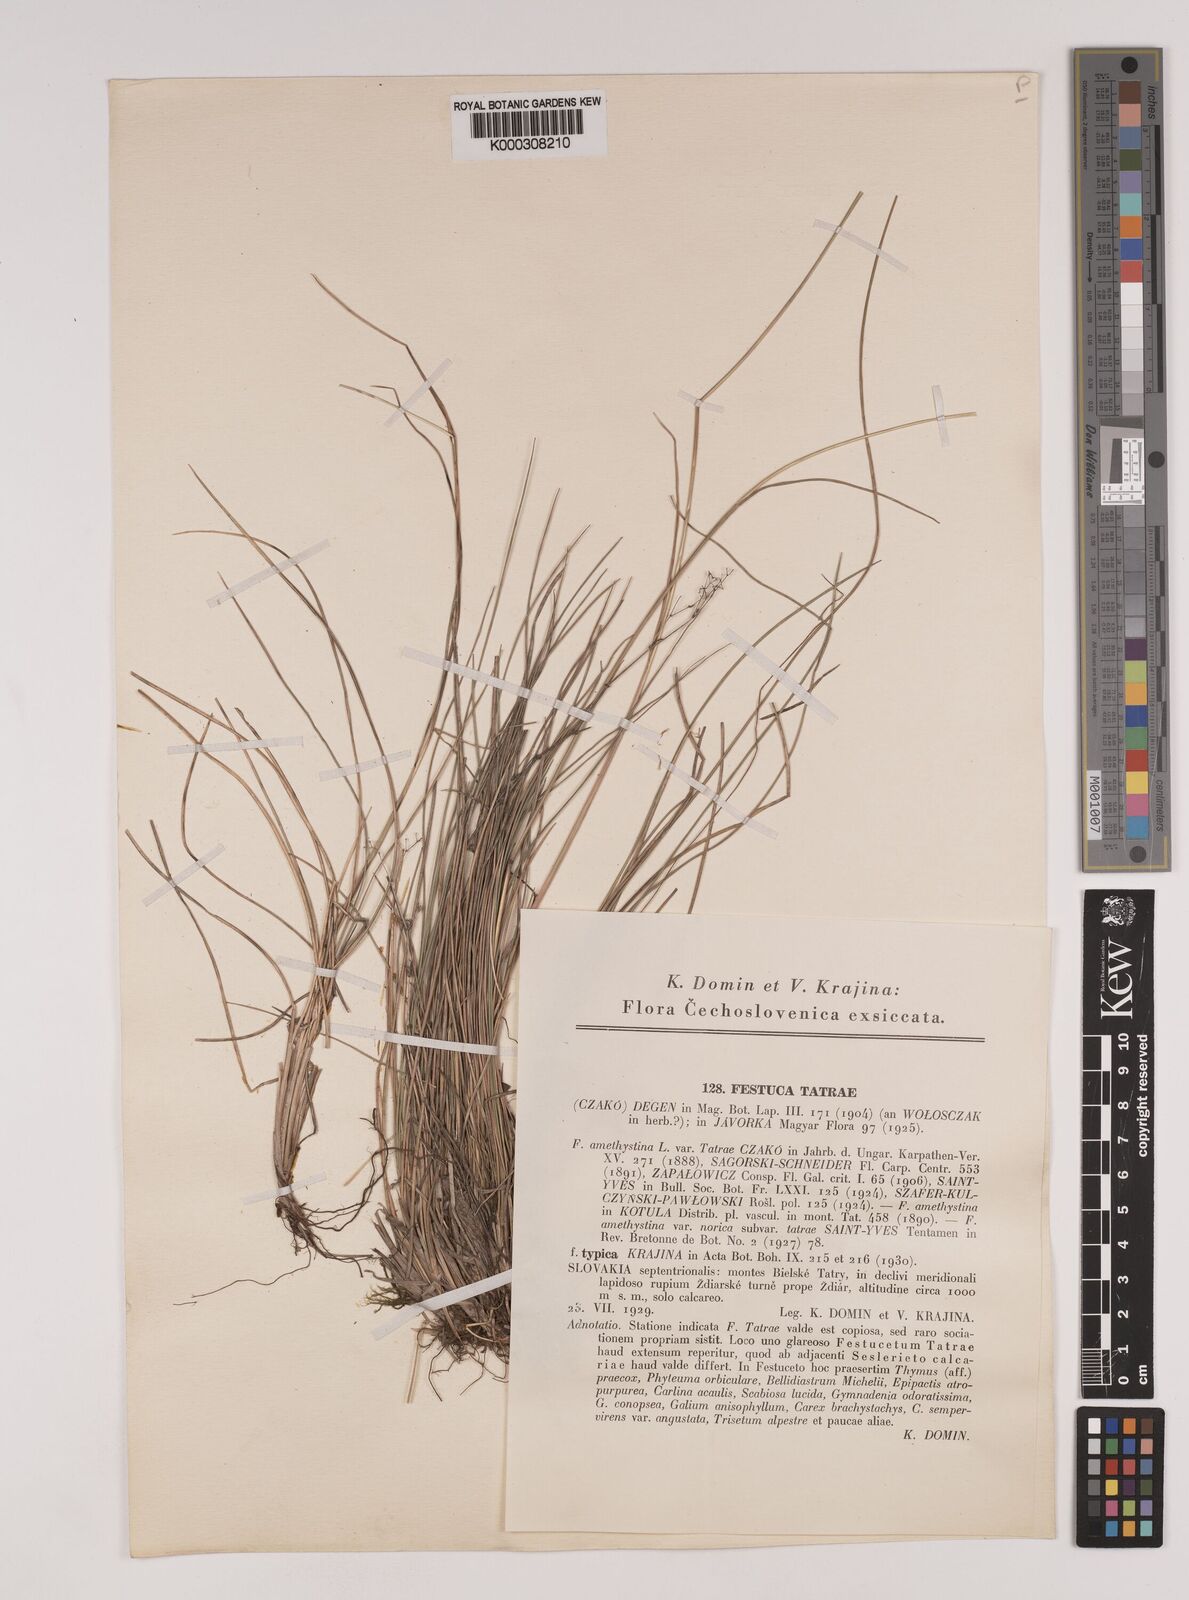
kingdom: Plantae
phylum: Tracheophyta
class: Liliopsida
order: Poales
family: Poaceae
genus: Festuca
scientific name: Festuca
